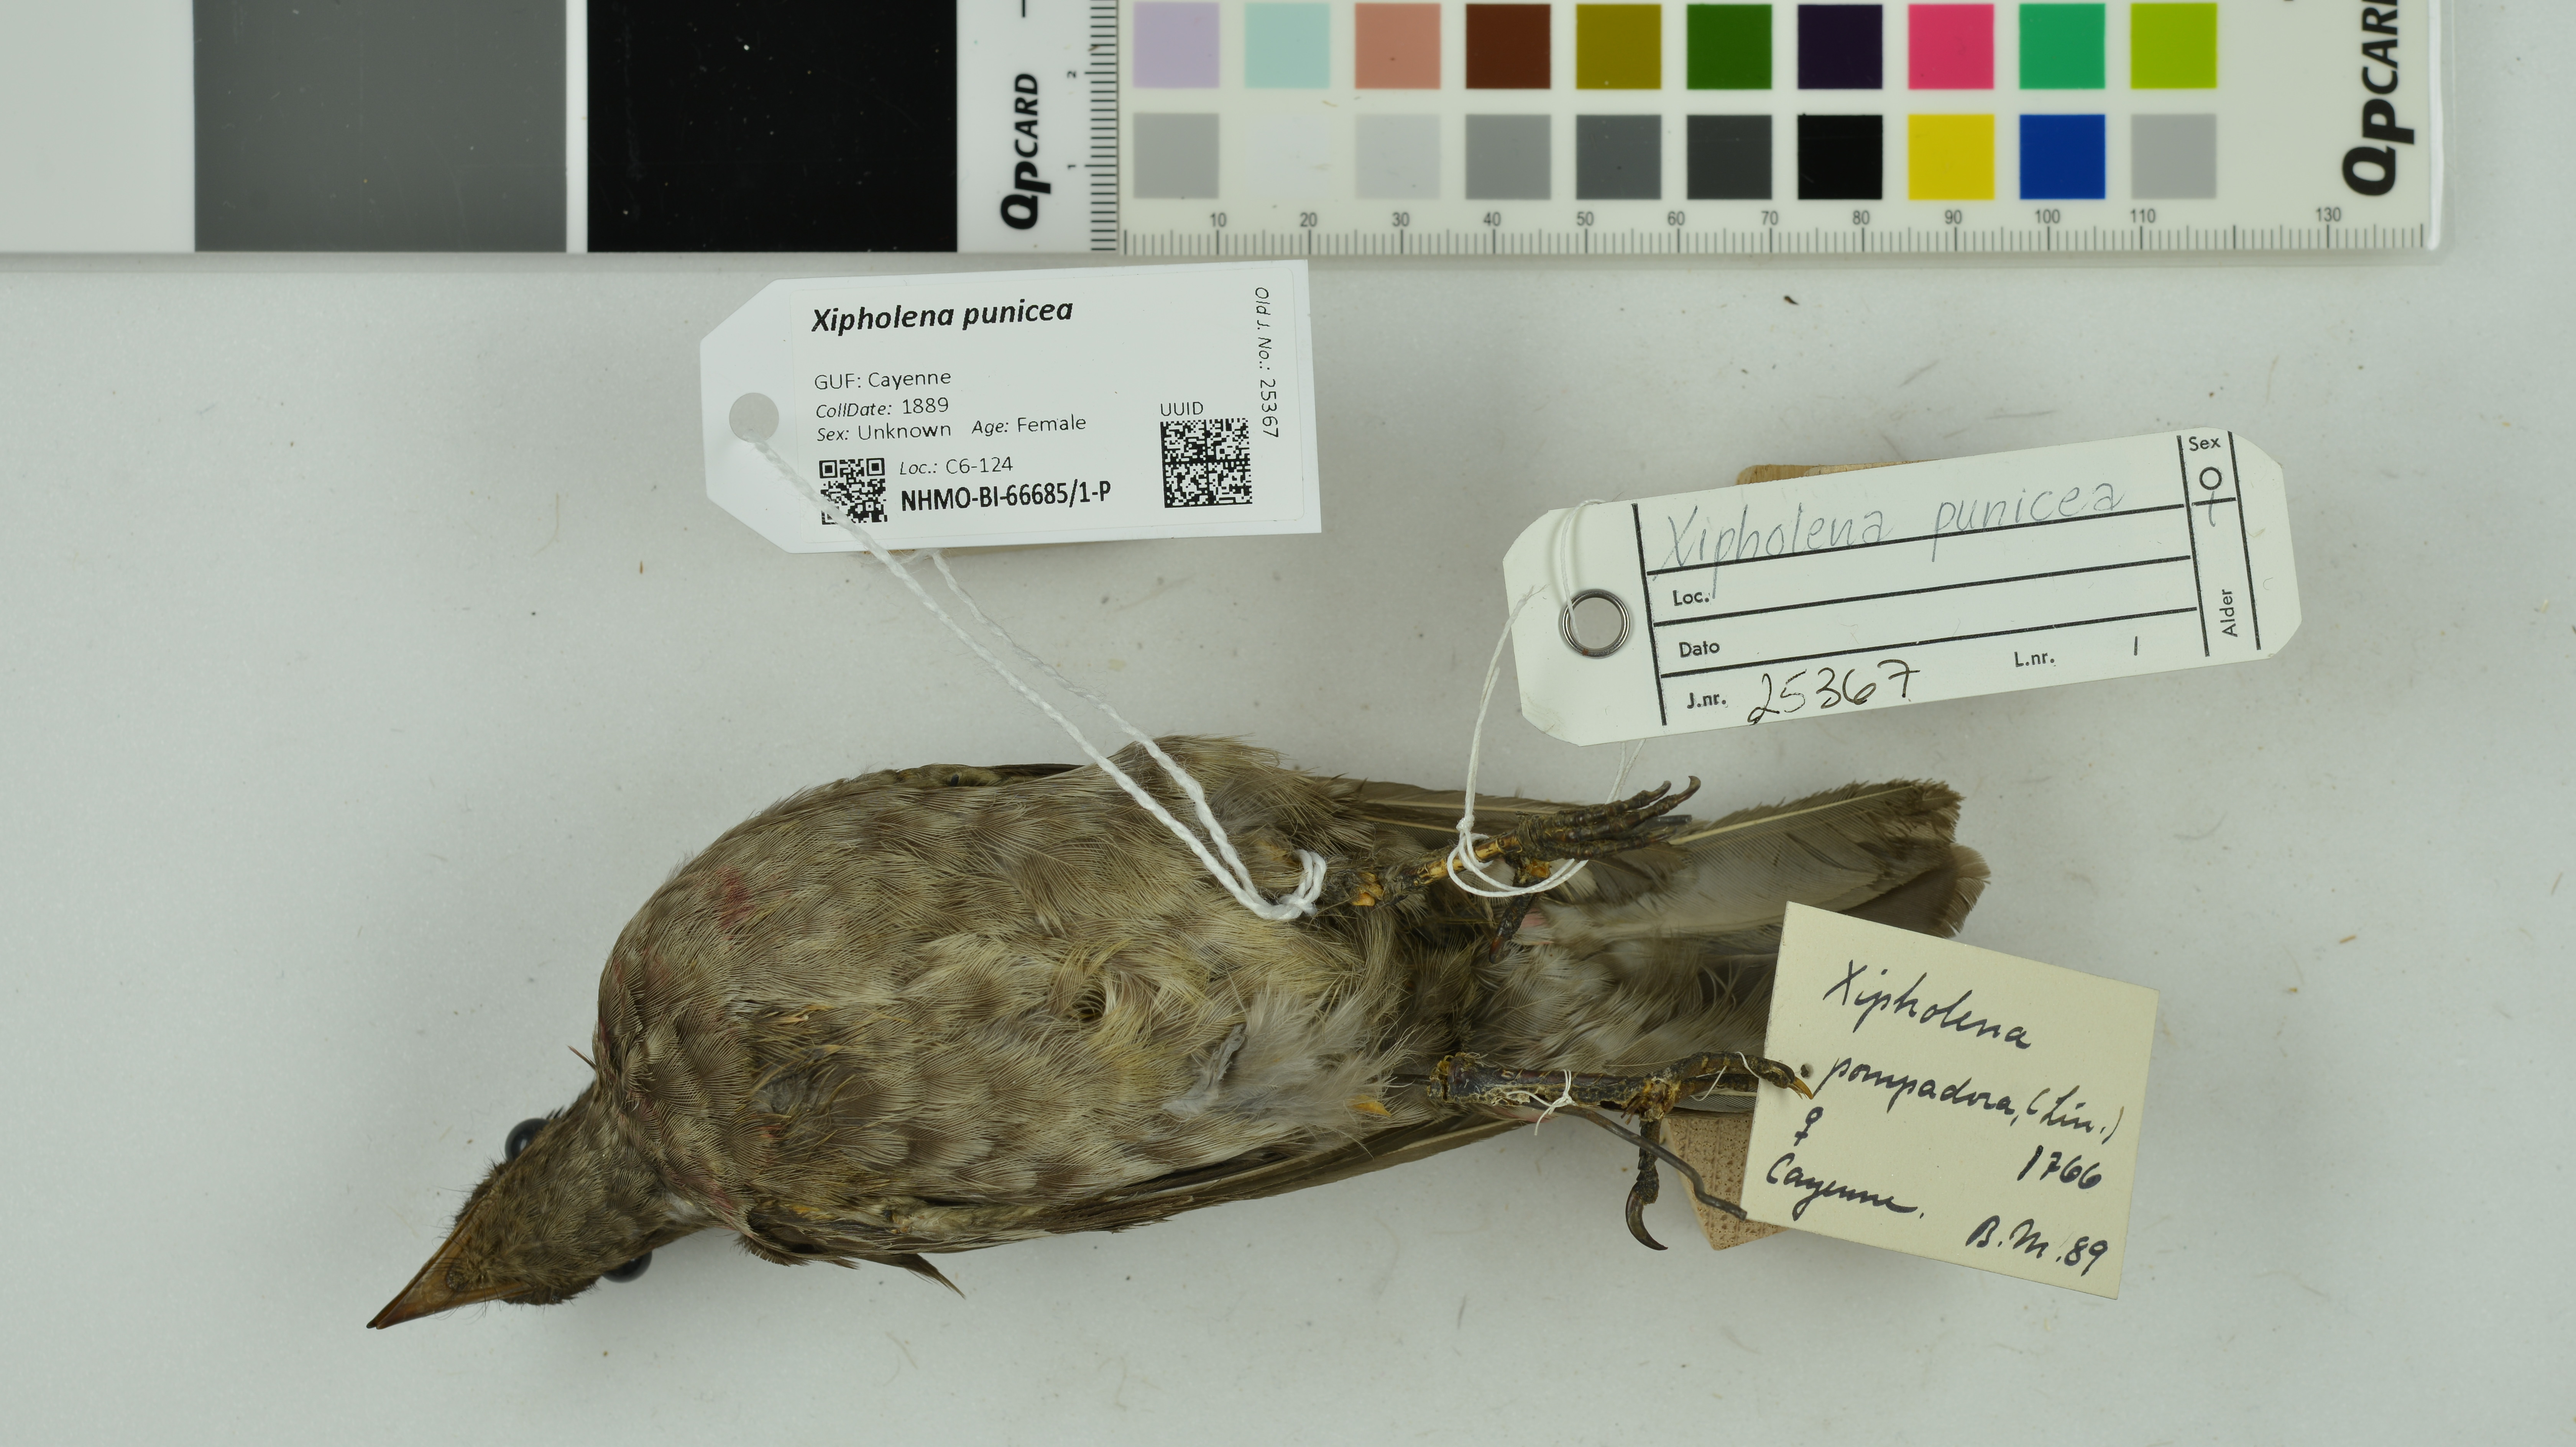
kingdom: Animalia
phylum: Chordata
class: Aves
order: Passeriformes
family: Cotingidae
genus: Xipholena
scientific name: Xipholena punicea
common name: Pompadour cotinga
